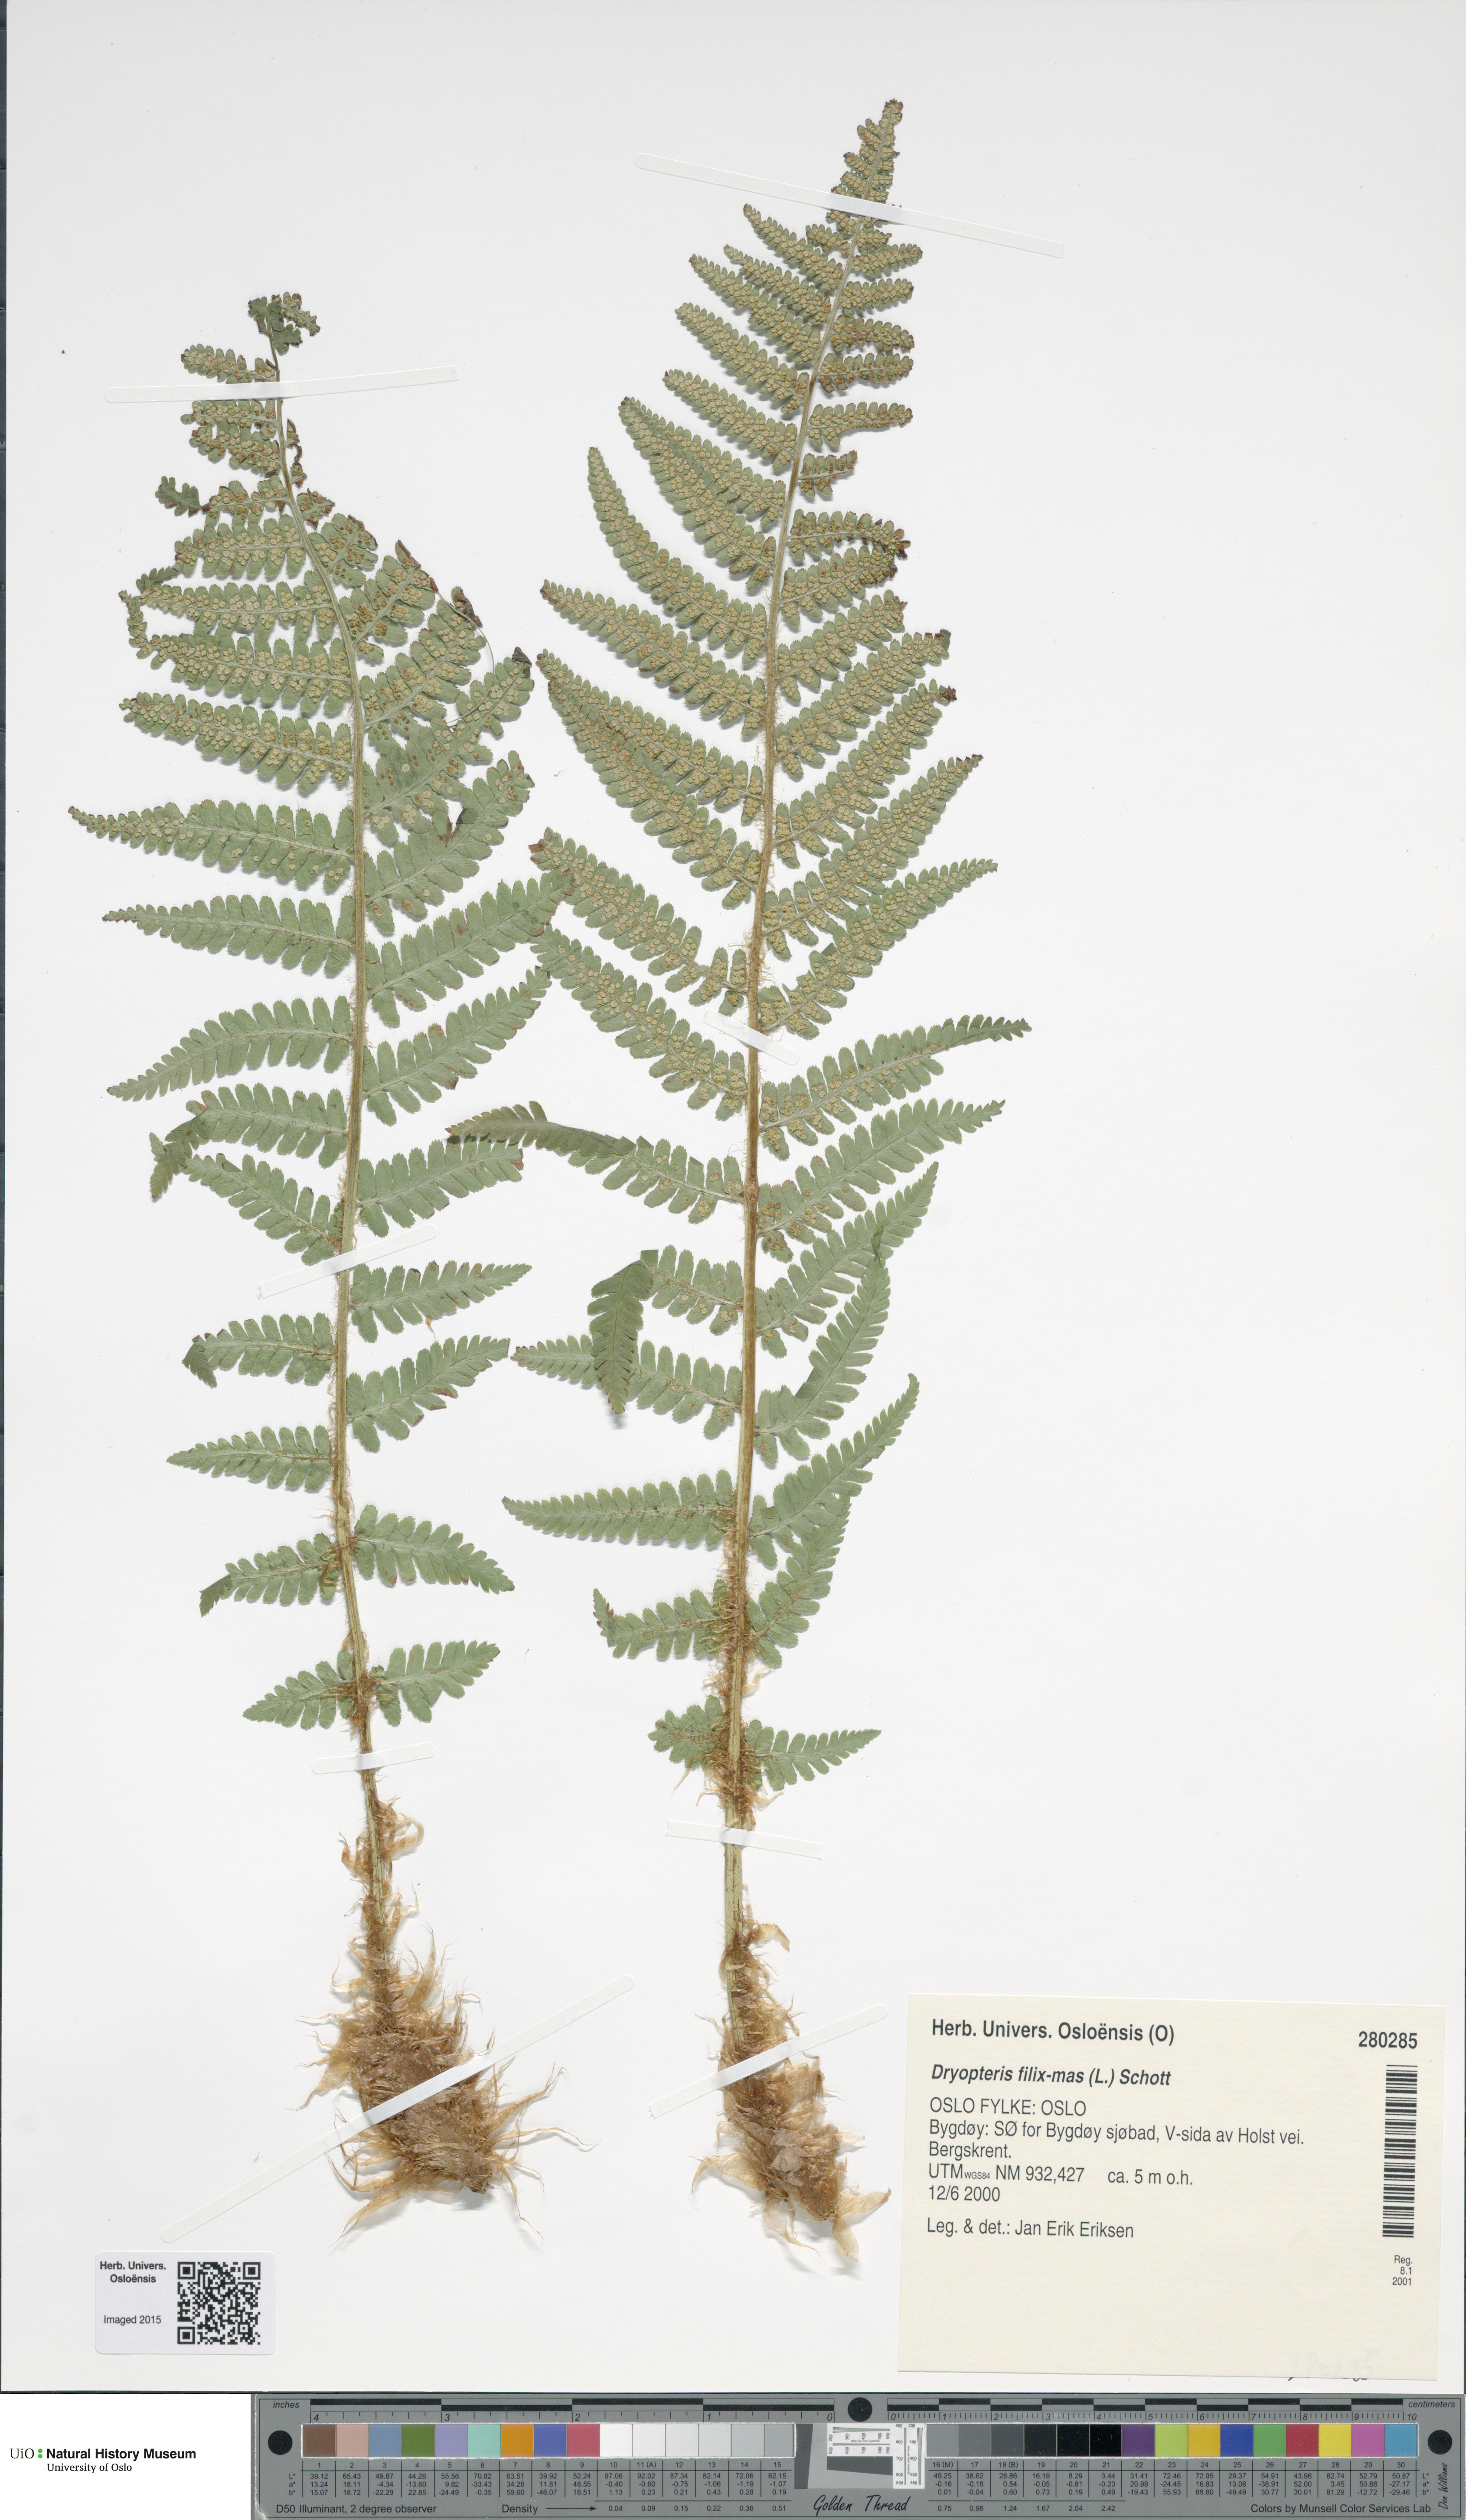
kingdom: Plantae
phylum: Tracheophyta
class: Polypodiopsida
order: Polypodiales
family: Dryopteridaceae
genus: Dryopteris
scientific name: Dryopteris filix-mas
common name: Male fern
